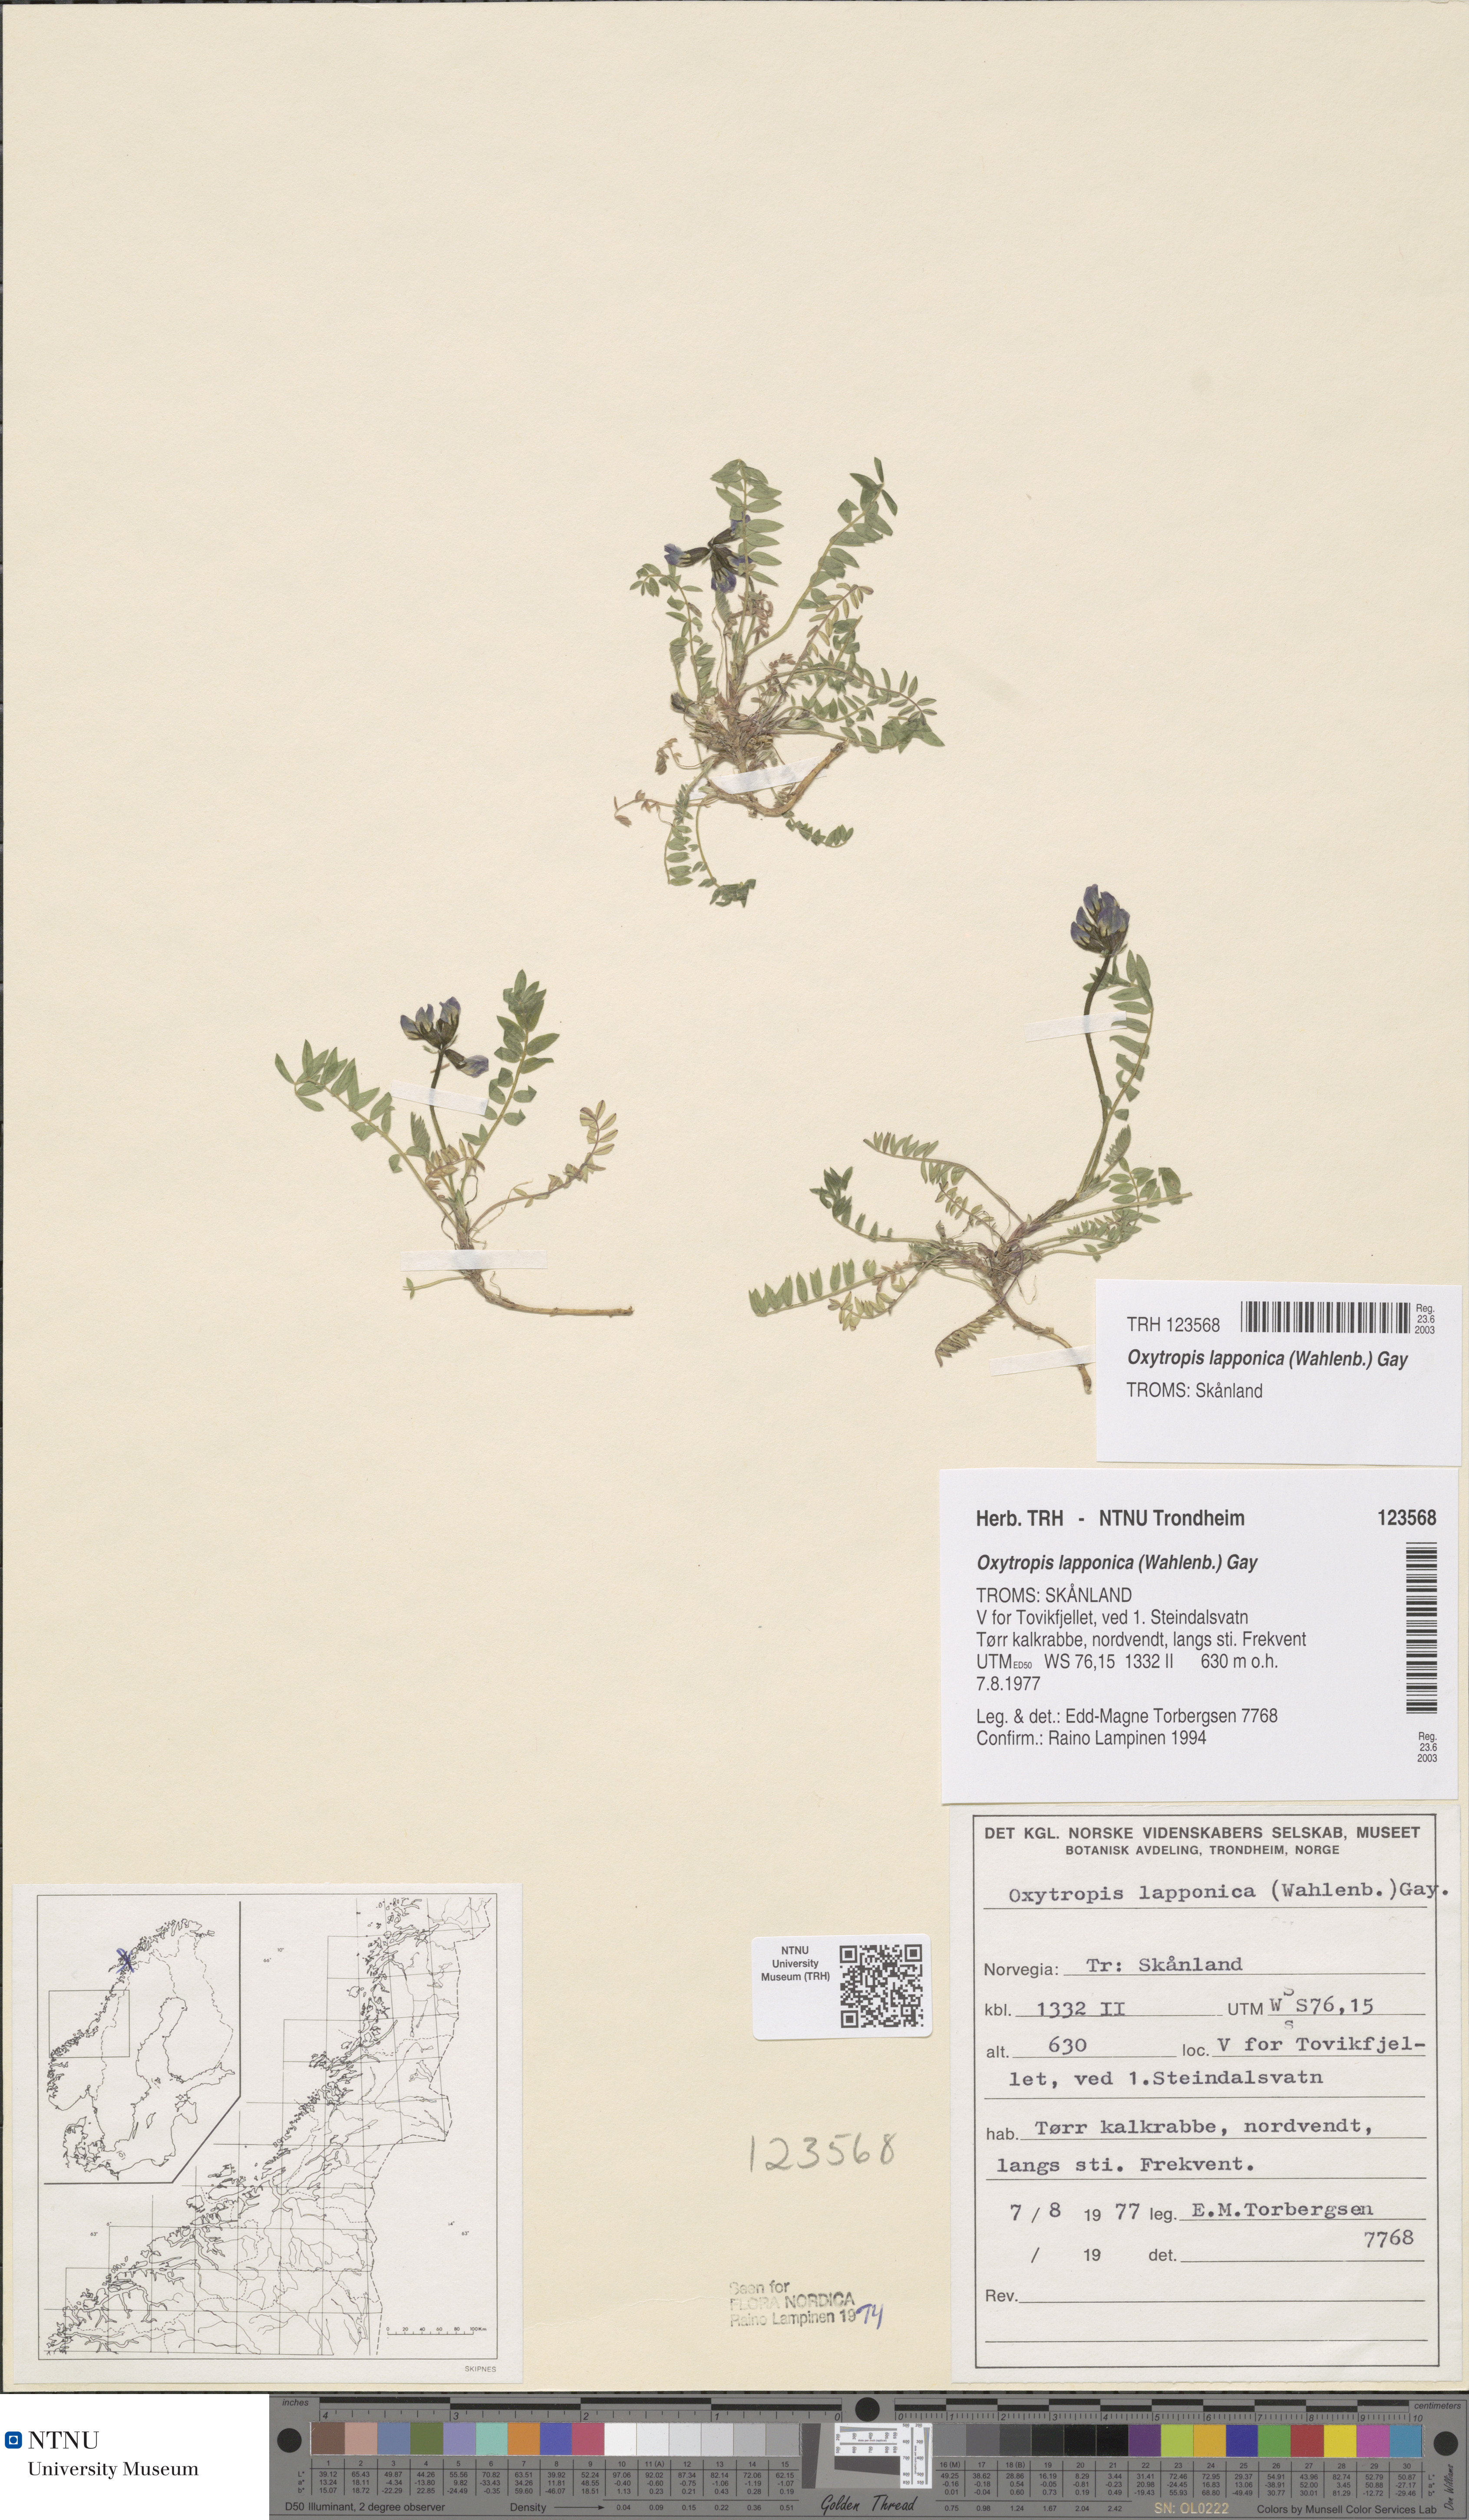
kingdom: Plantae
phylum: Tracheophyta
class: Magnoliopsida
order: Fabales
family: Fabaceae
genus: Oxytropis
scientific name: Oxytropis lapponica
